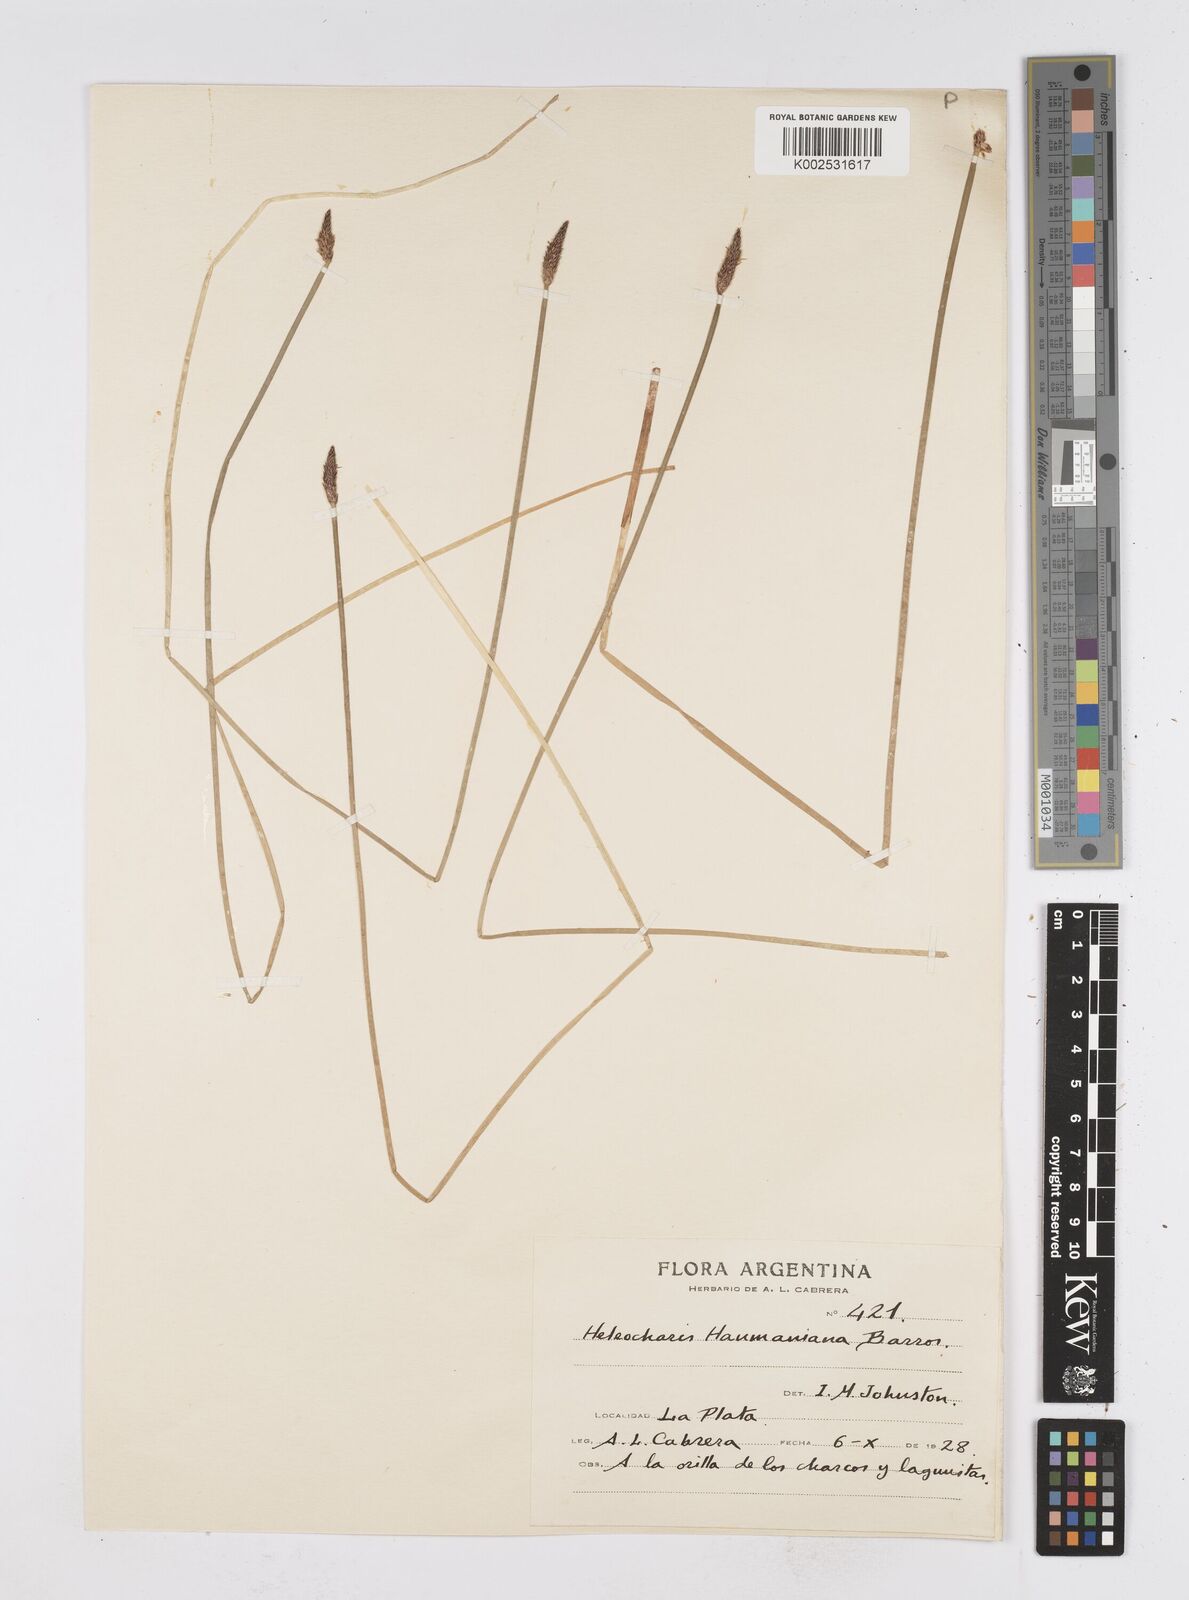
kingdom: Plantae
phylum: Tracheophyta
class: Liliopsida
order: Poales
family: Cyperaceae
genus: Eleocharis
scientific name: Eleocharis haumaniana
